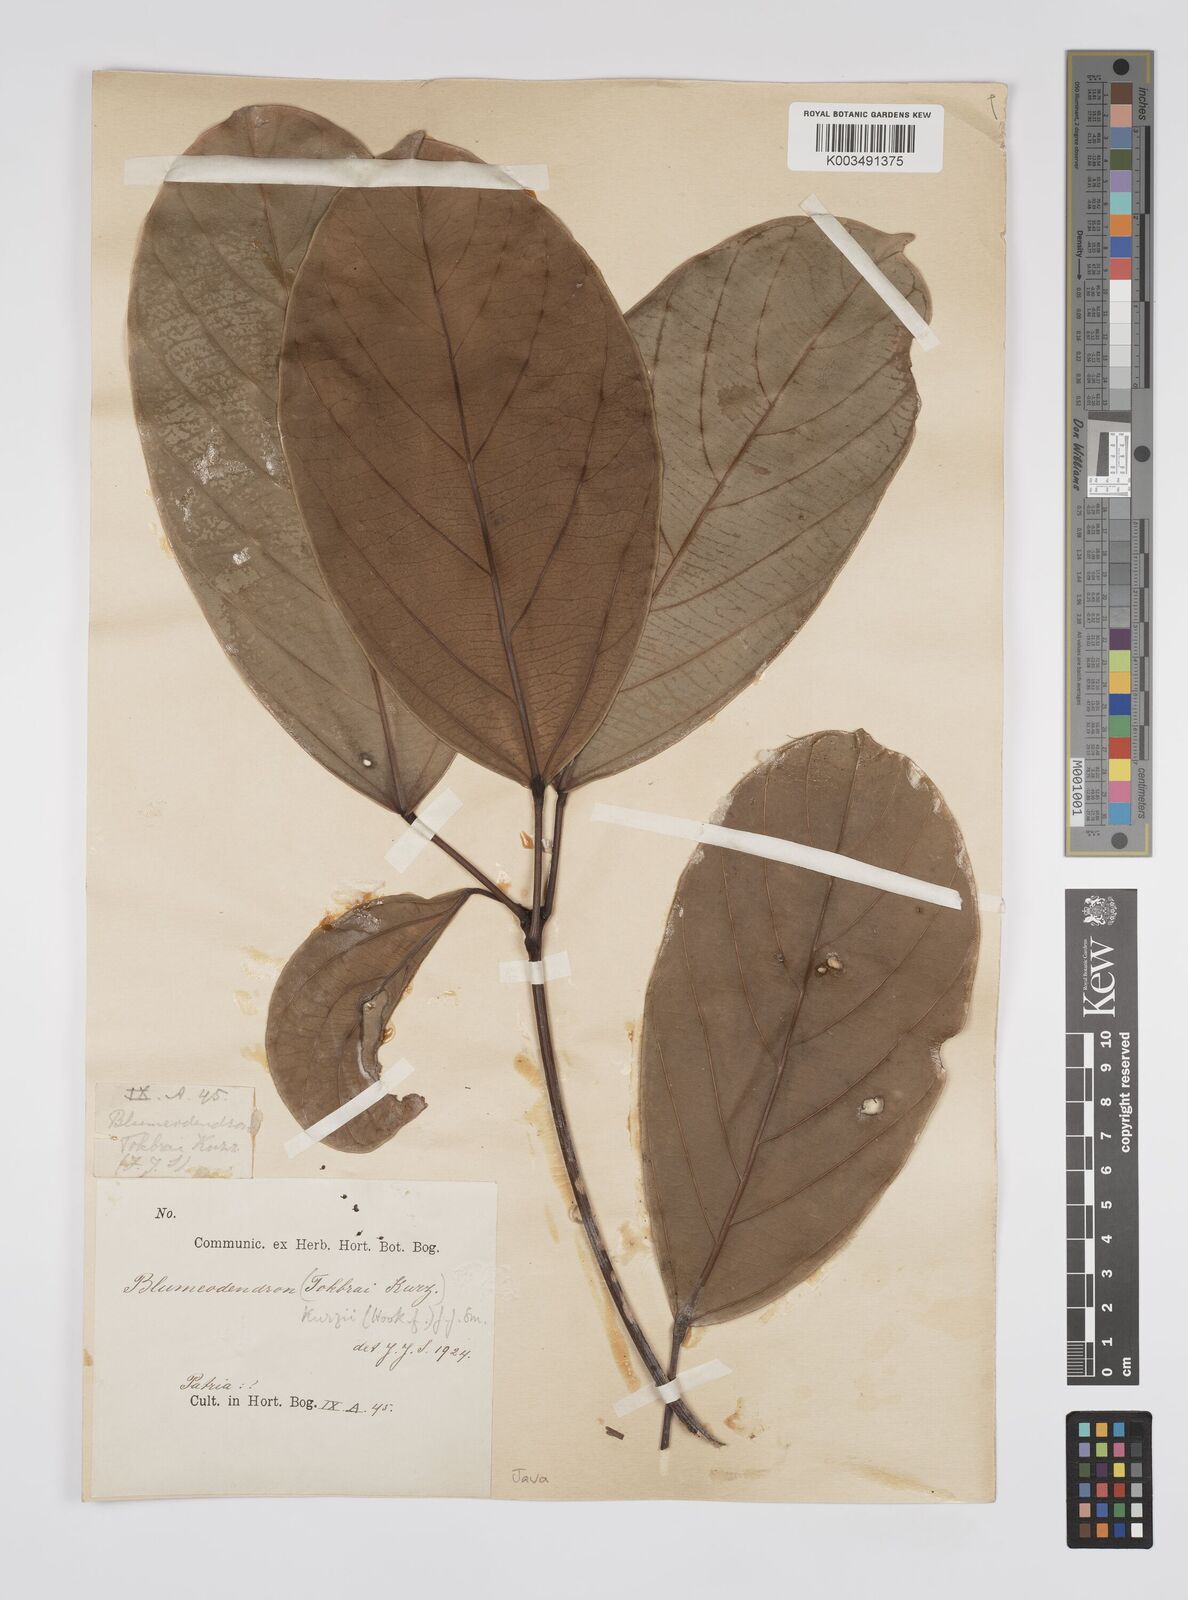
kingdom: Plantae
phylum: Tracheophyta
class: Magnoliopsida
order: Malpighiales
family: Euphorbiaceae
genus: Blumeodendron
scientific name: Blumeodendron kurzii
